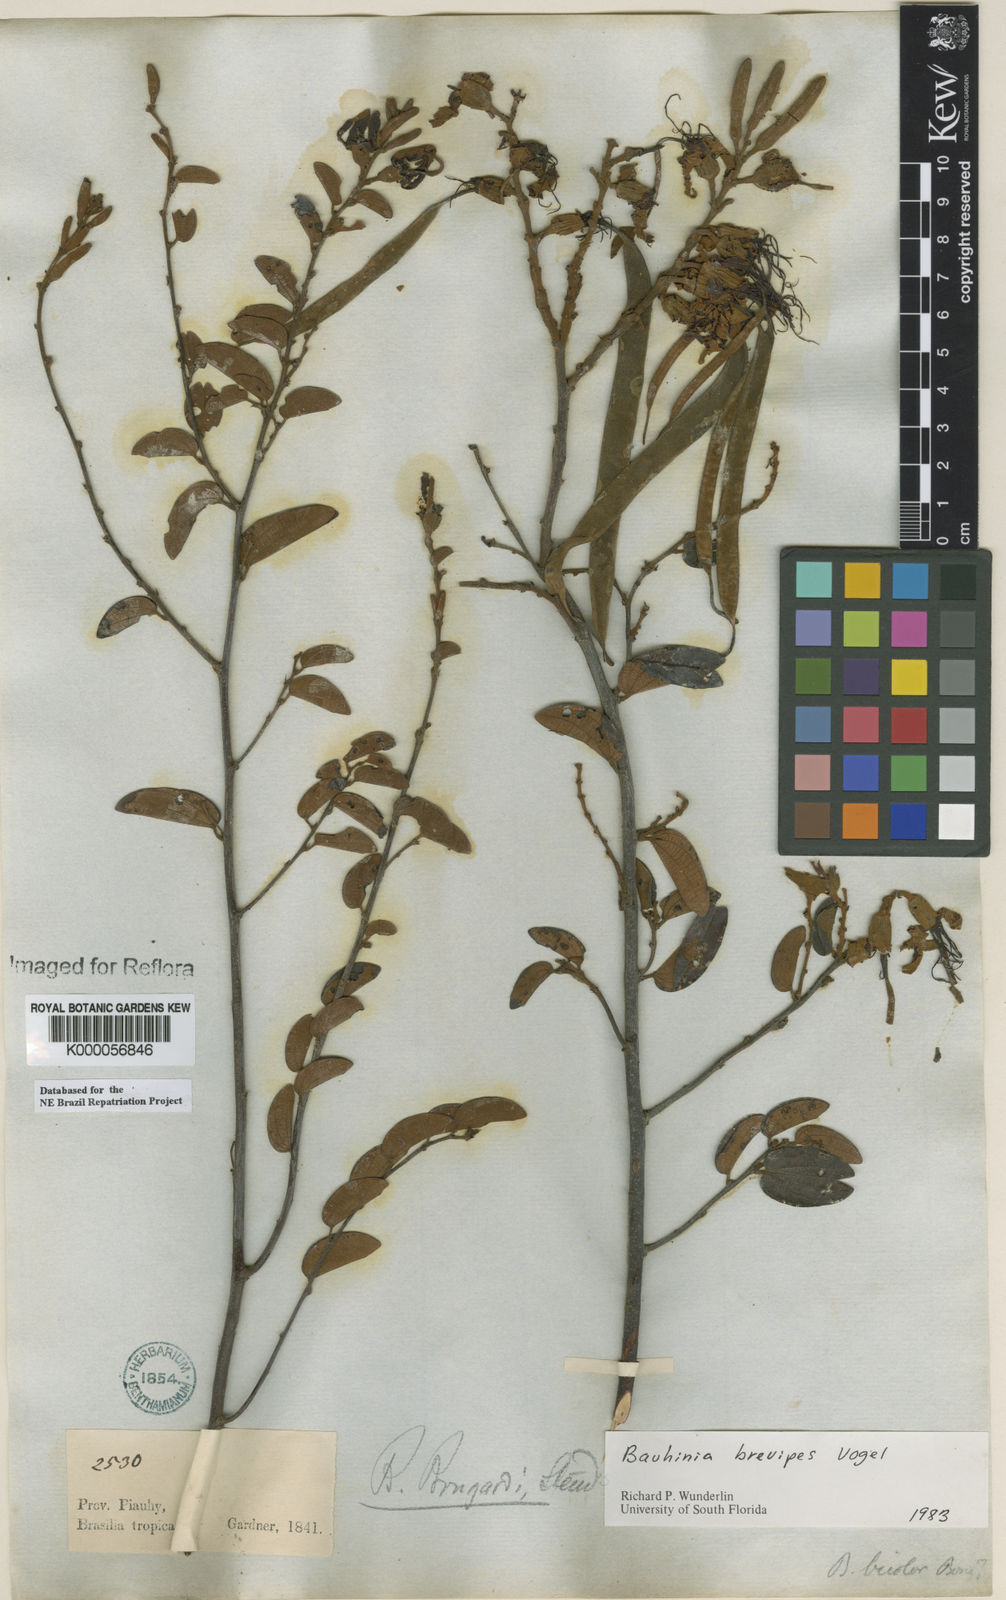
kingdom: Plantae
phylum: Tracheophyta
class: Magnoliopsida
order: Fabales
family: Fabaceae
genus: Bauhinia
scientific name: Bauhinia brevipes
